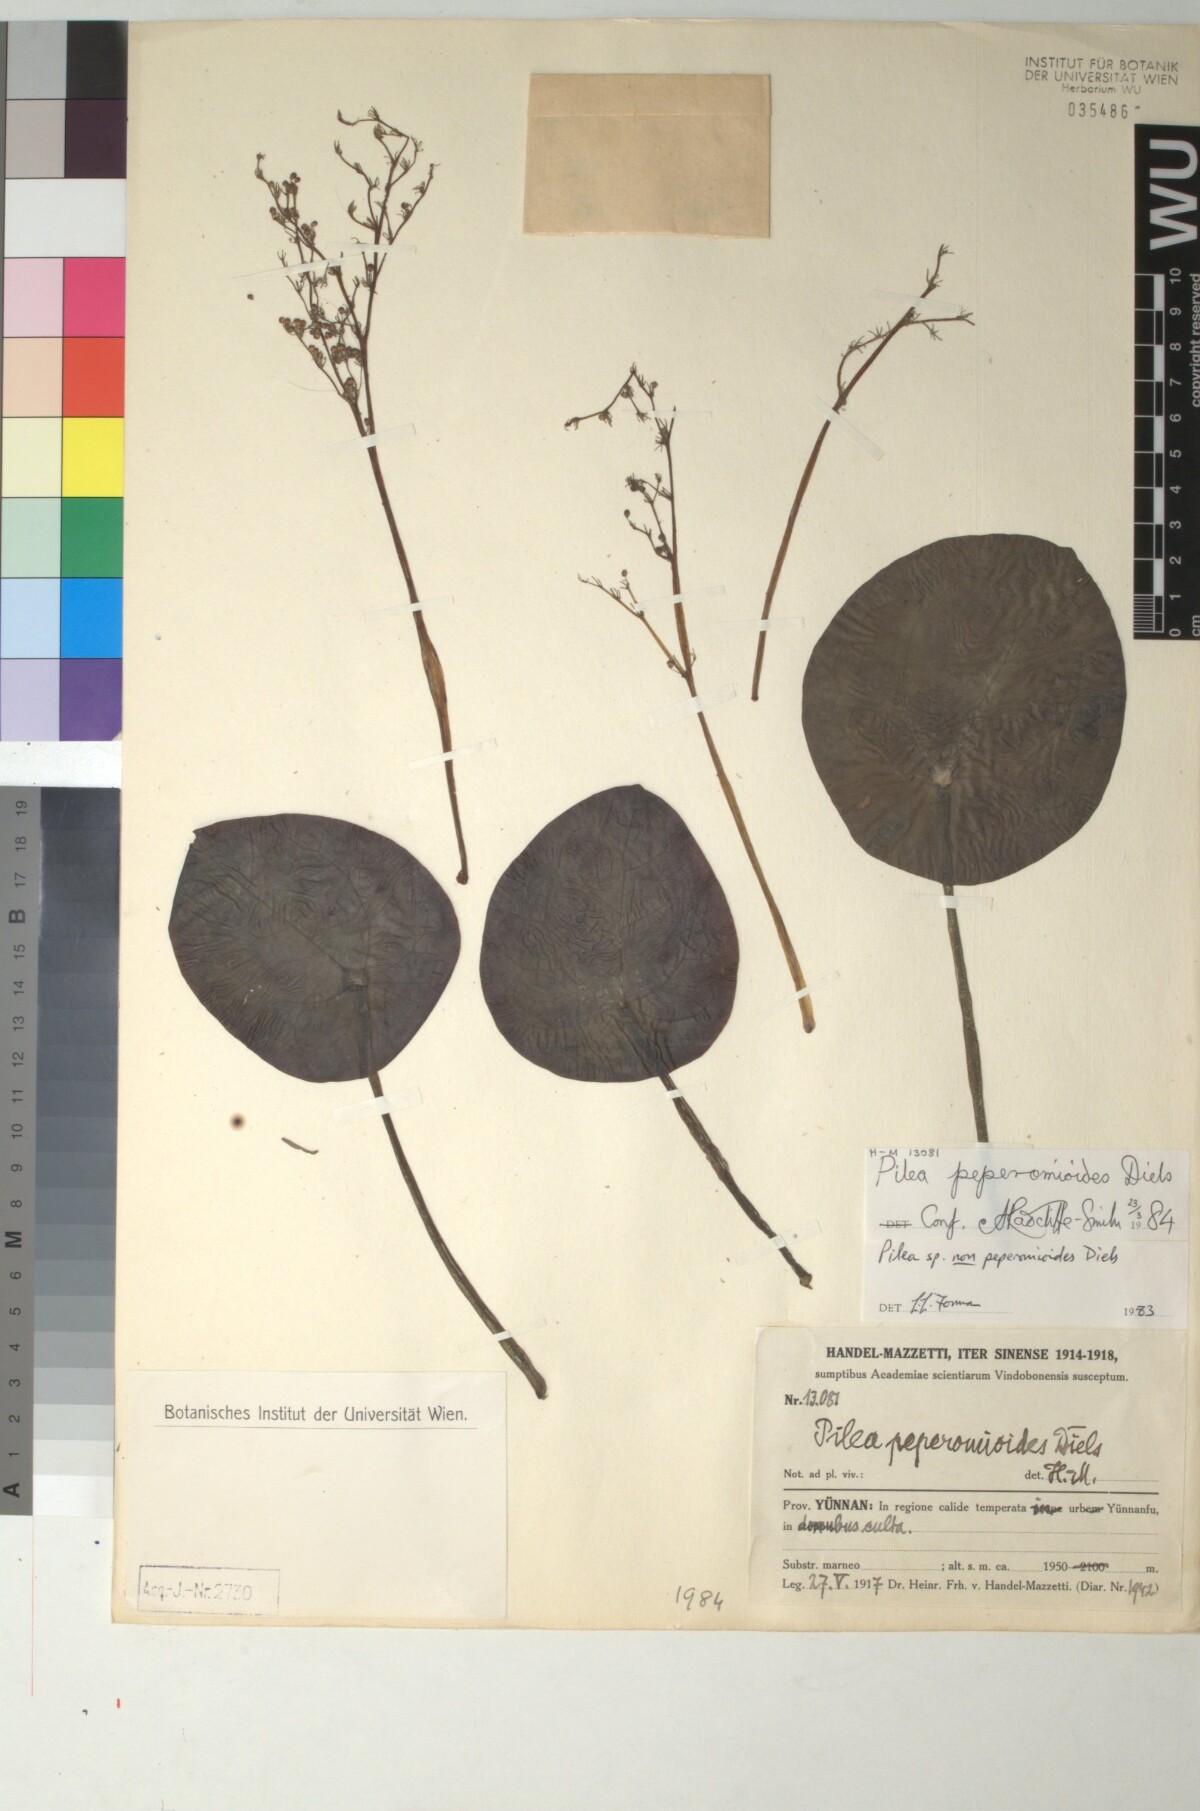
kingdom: Plantae
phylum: Tracheophyta
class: Magnoliopsida
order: Rosales
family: Urticaceae
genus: Pilea
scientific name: Pilea peperomioides
